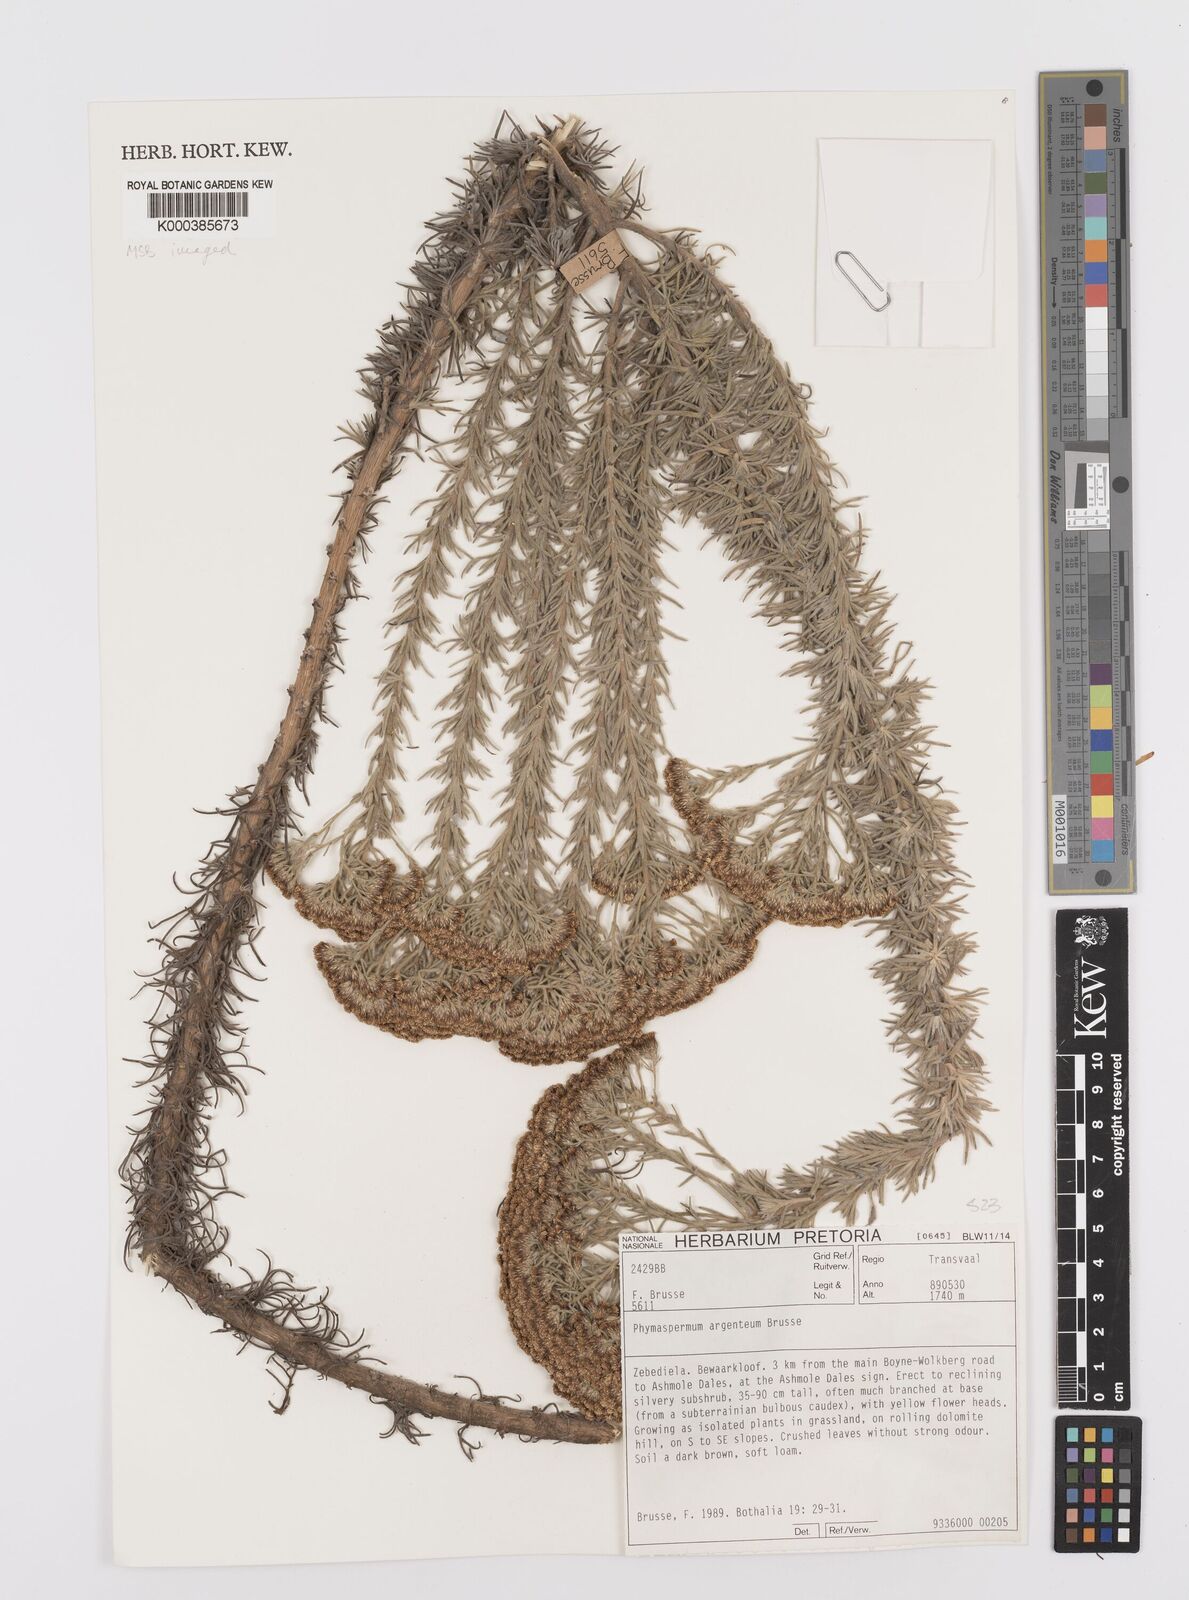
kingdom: Plantae
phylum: Tracheophyta
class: Magnoliopsida
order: Asterales
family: Asteraceae
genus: Phymaspermum
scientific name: Phymaspermum argenteum
